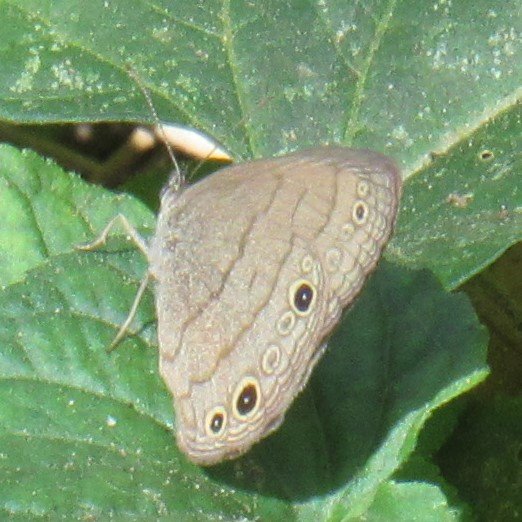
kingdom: Animalia
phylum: Arthropoda
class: Insecta
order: Lepidoptera
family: Nymphalidae
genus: Hermeuptychia
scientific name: Hermeuptychia hermes
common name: Carolina Satyr
